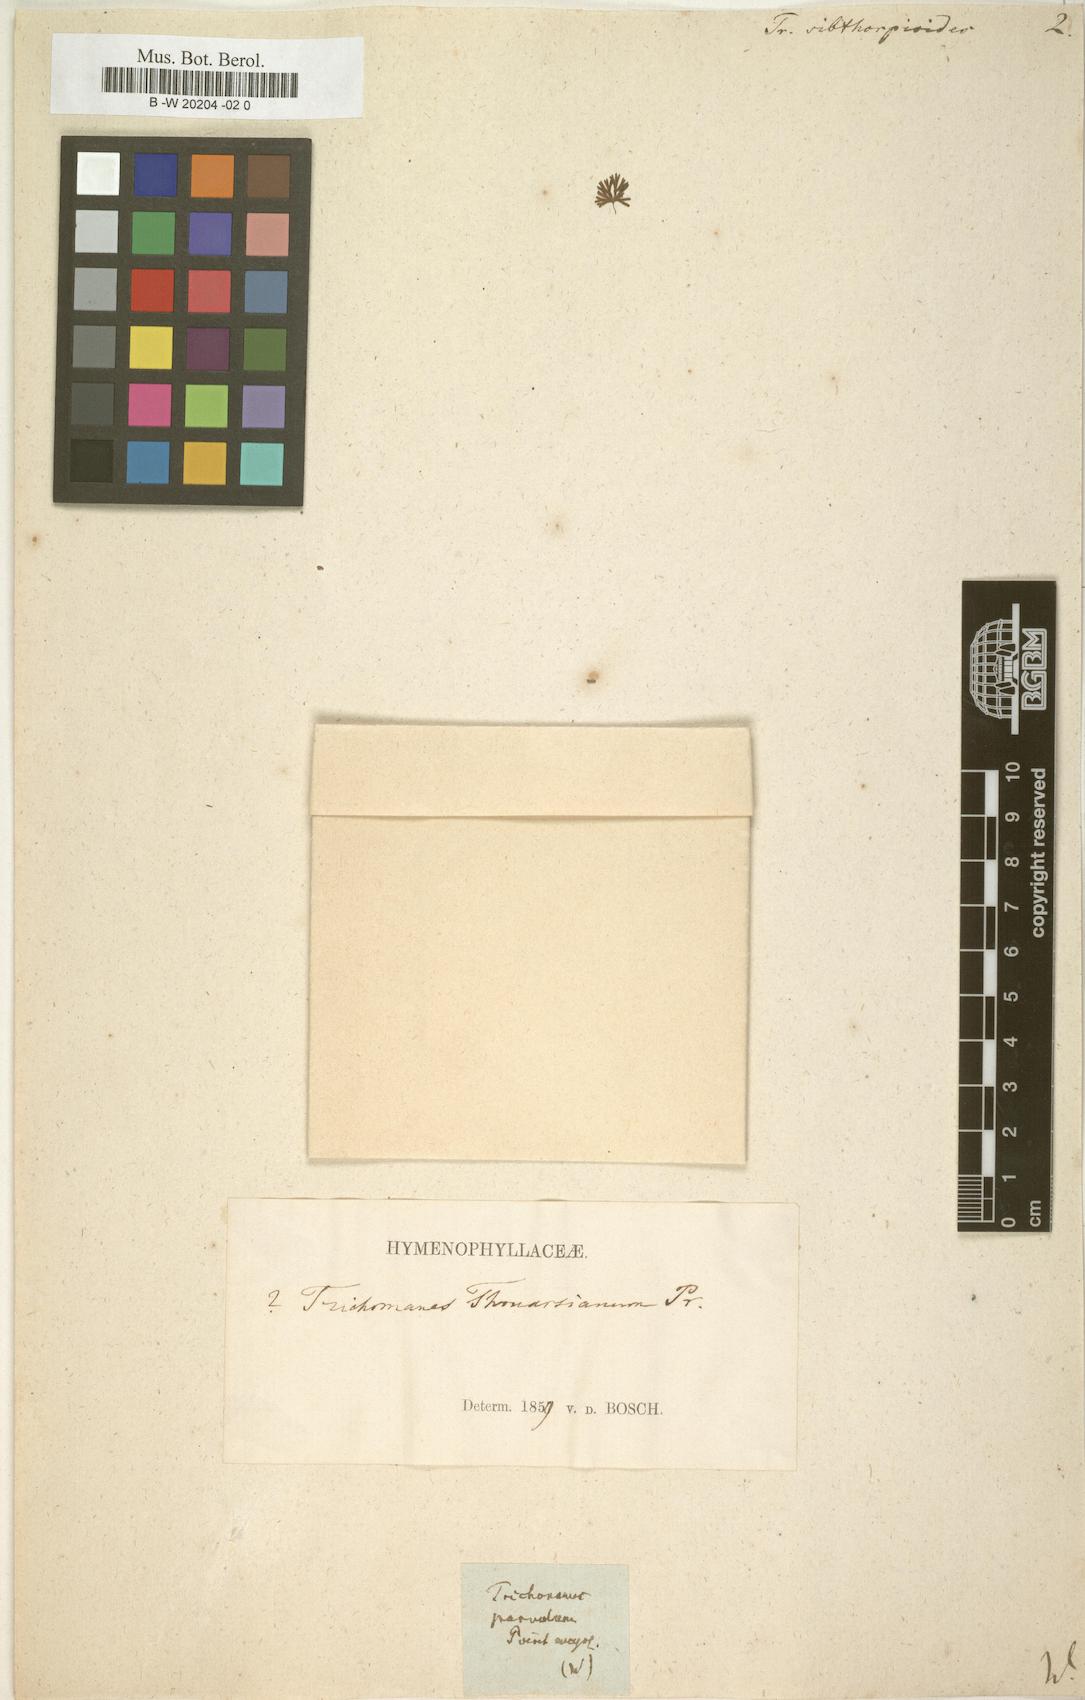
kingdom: Plantae
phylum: Tracheophyta
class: Polypodiopsida
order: Hymenophyllales
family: Hymenophyllaceae
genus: Trichomanes
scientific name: Trichomanes sibthorpioides
